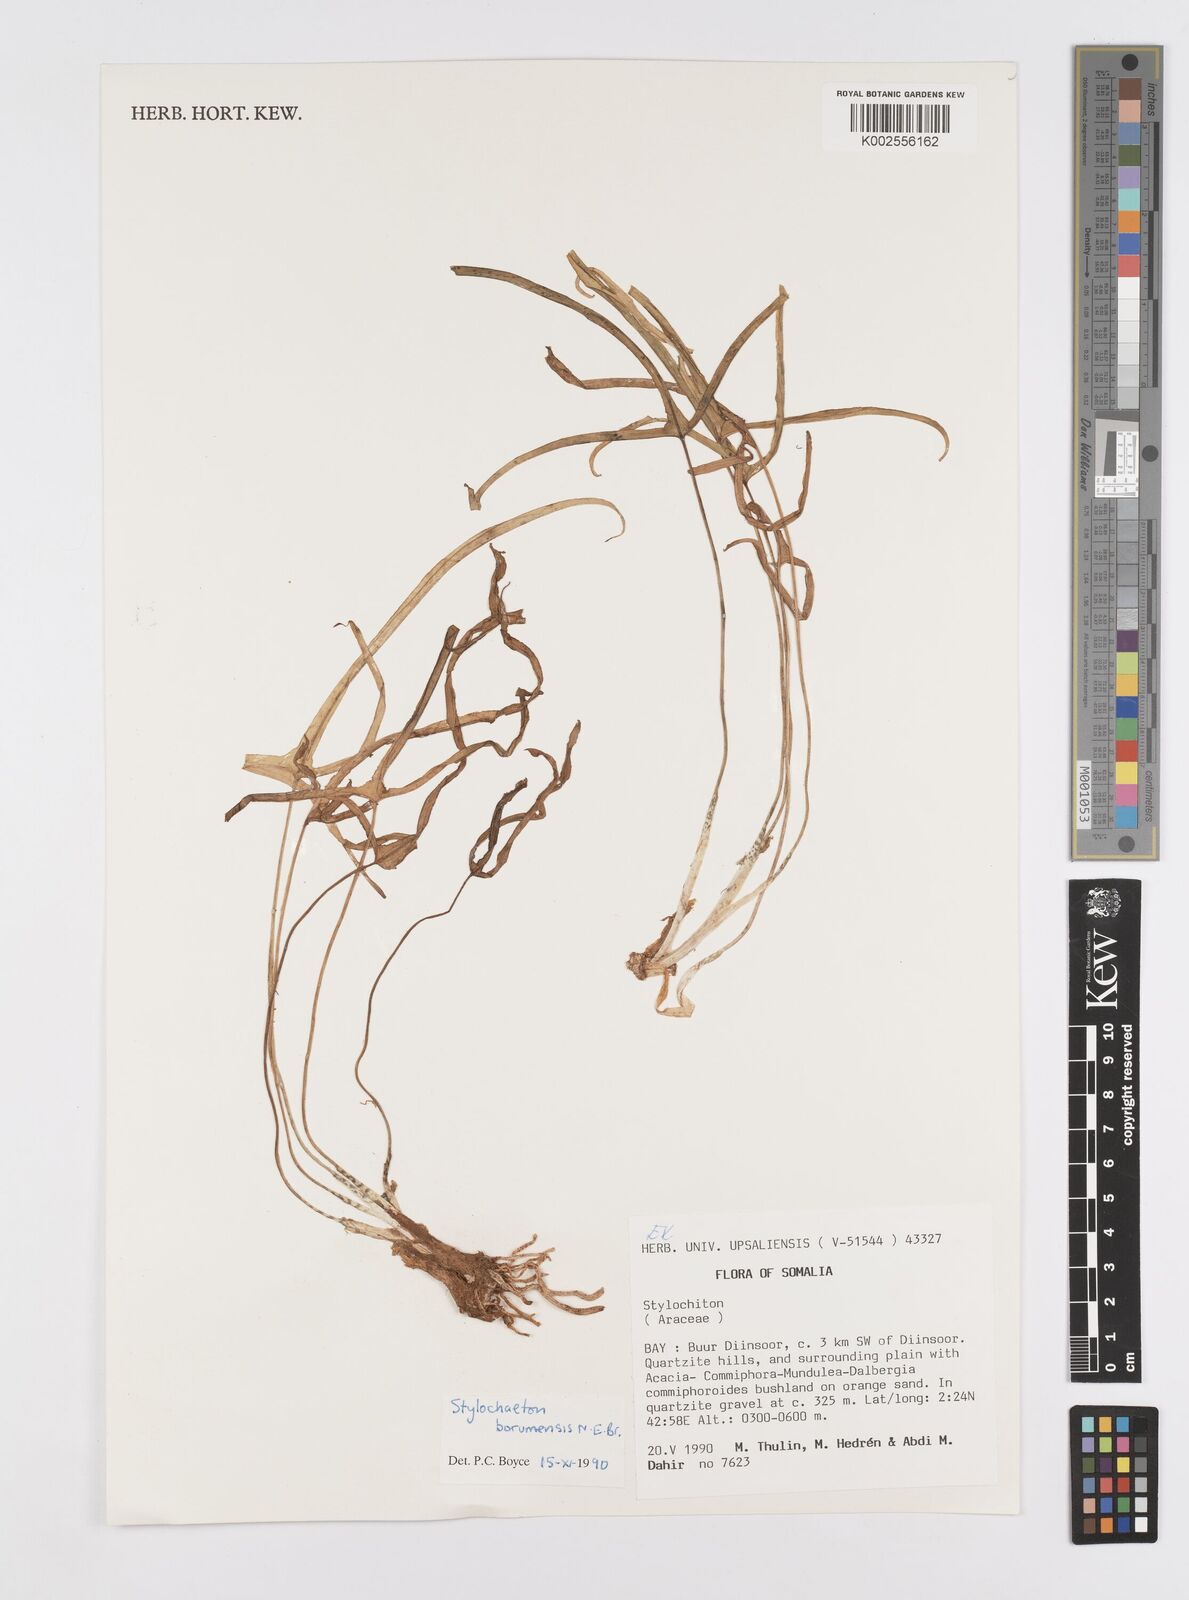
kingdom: Plantae
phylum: Tracheophyta
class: Liliopsida
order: Alismatales
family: Araceae
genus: Stylochaeton
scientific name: Stylochaeton borumense
